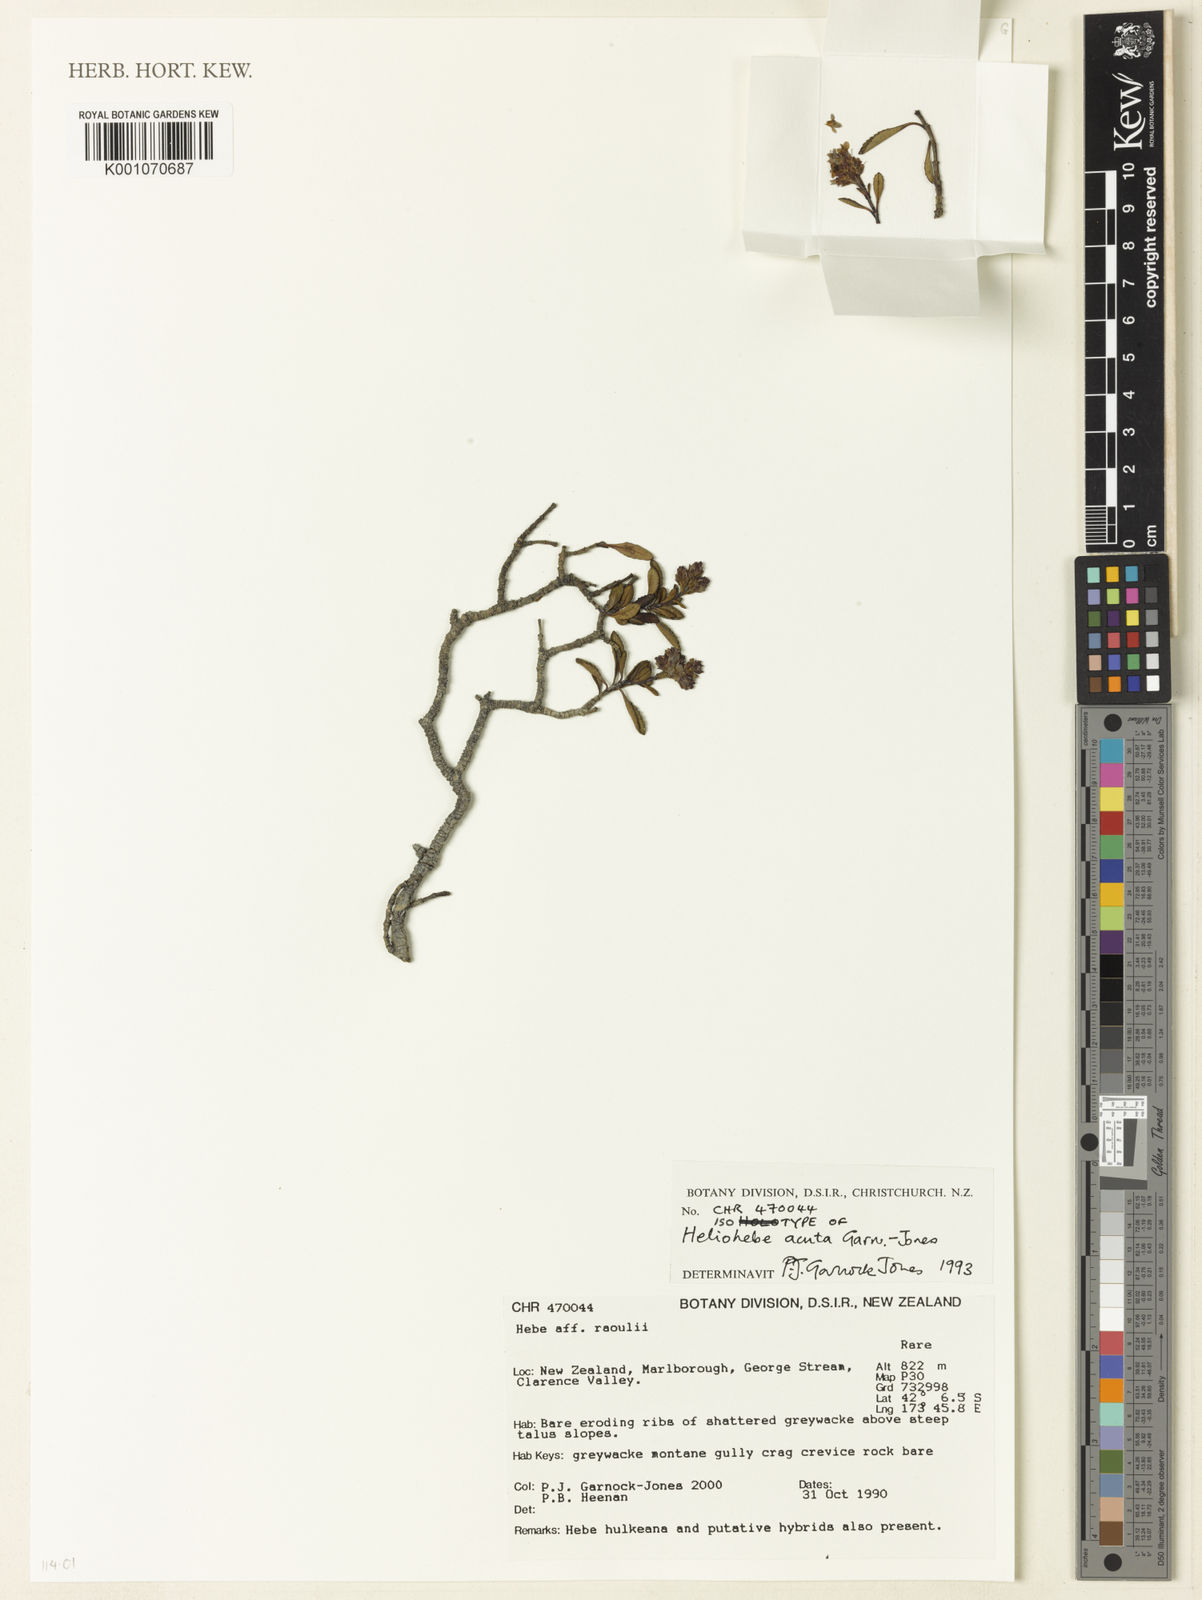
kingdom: Plantae
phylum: Tracheophyta
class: Magnoliopsida
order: Lamiales
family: Plantaginaceae
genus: Veronica
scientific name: Veronica
